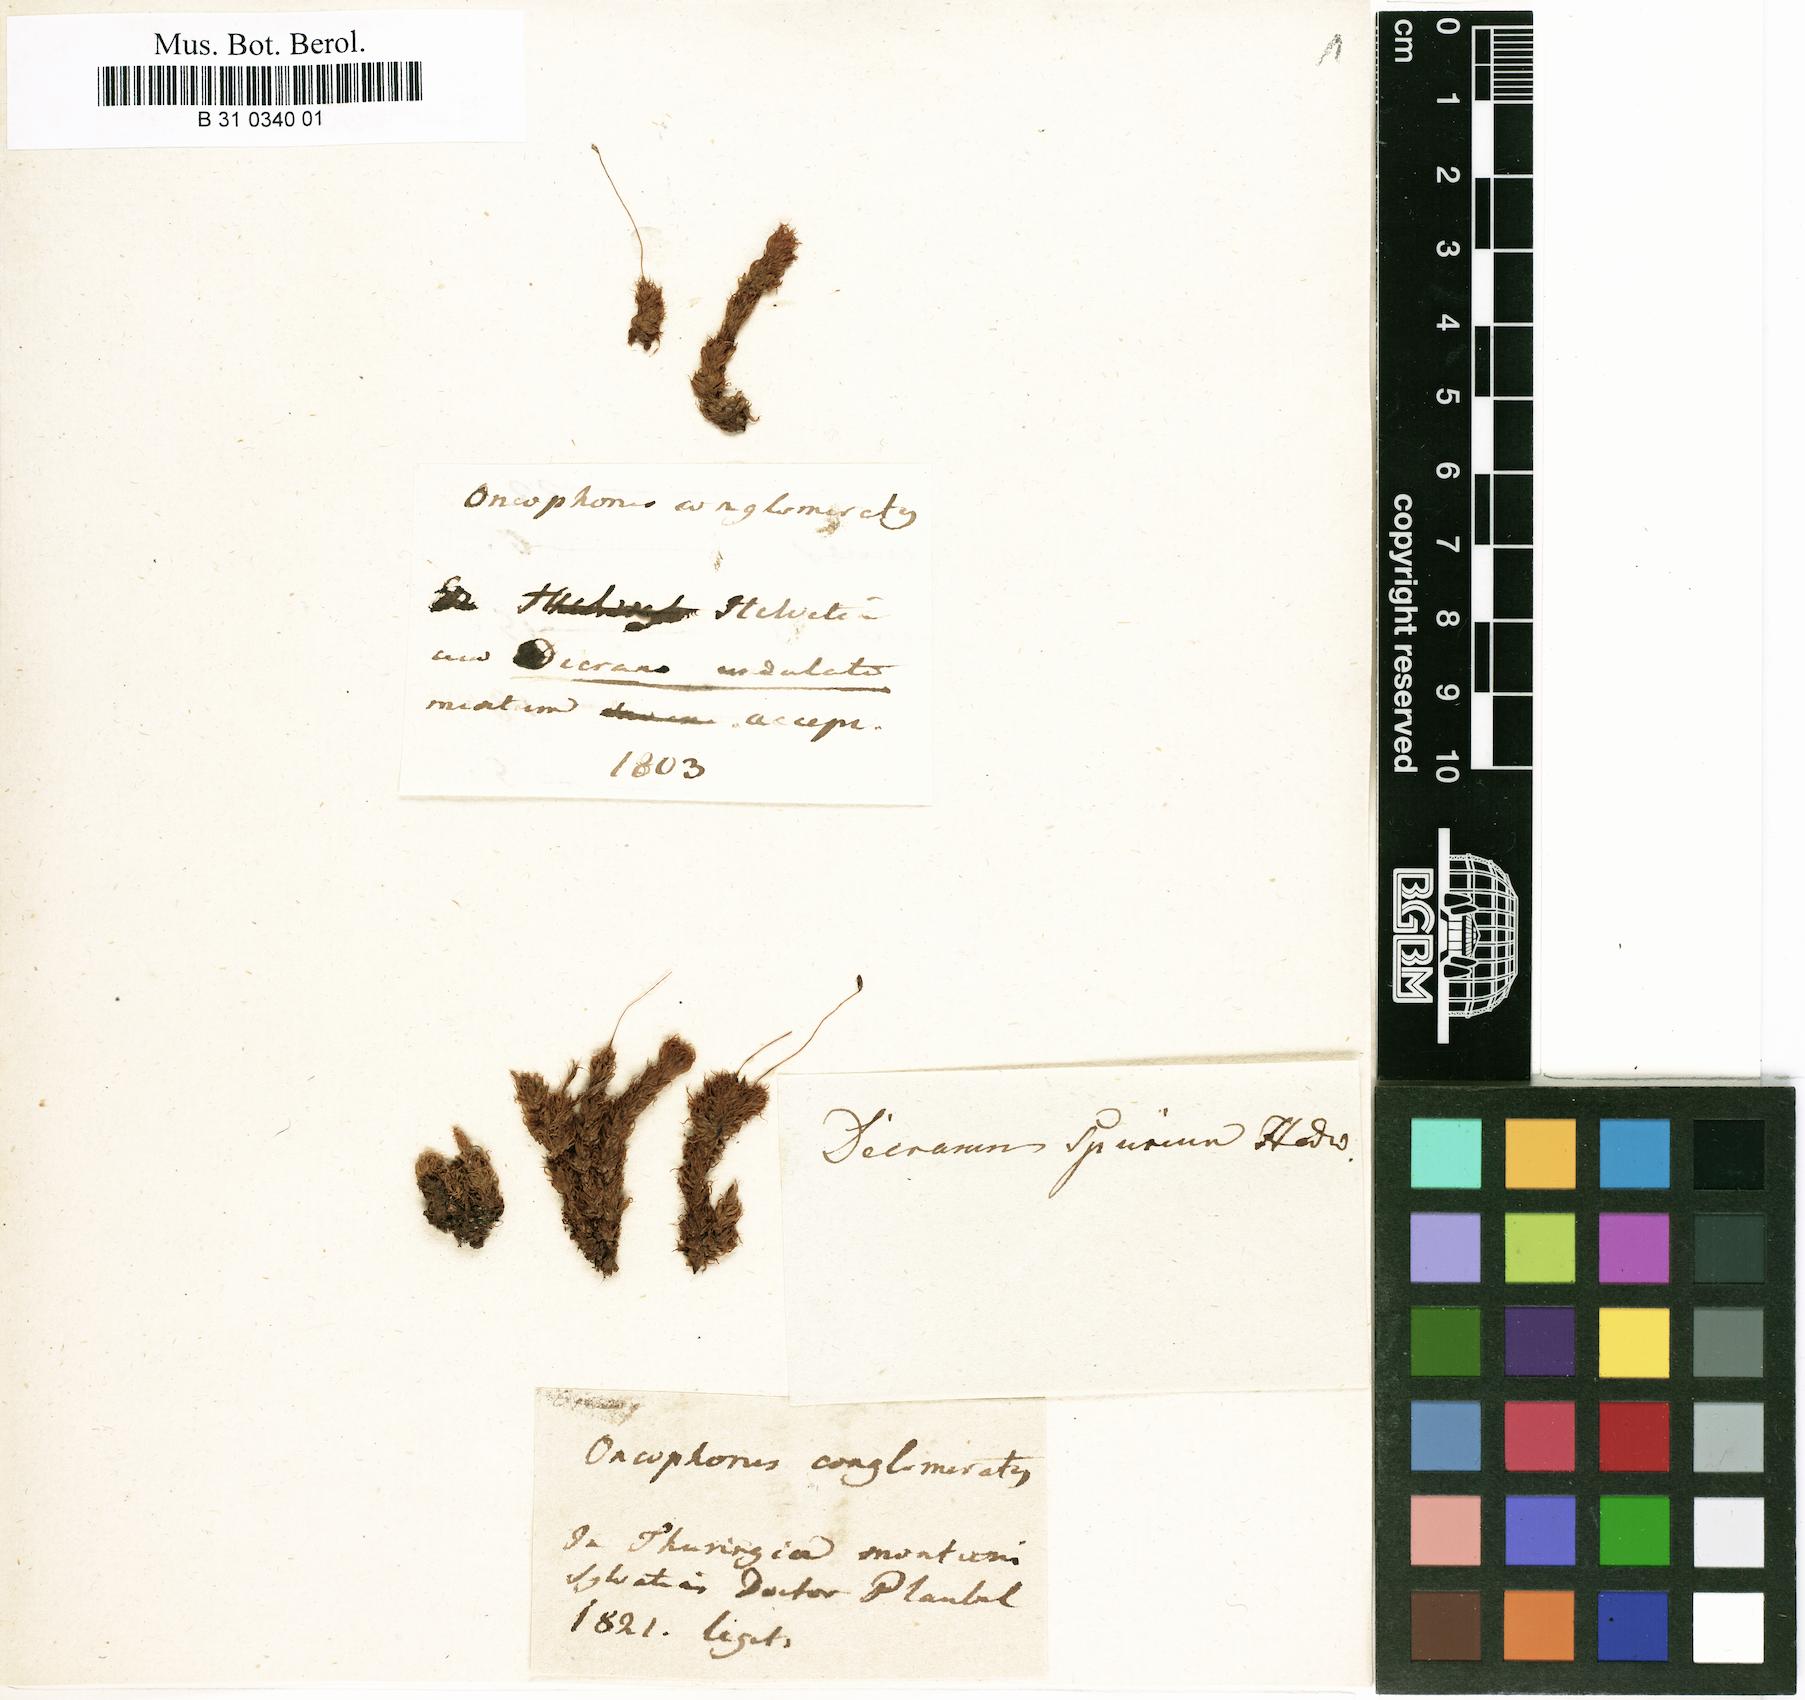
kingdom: Plantae
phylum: Bryophyta
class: Bryopsida
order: Dicranales
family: Dicranaceae
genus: Dicranum
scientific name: Dicranum spurium
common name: Spurred broom moss
